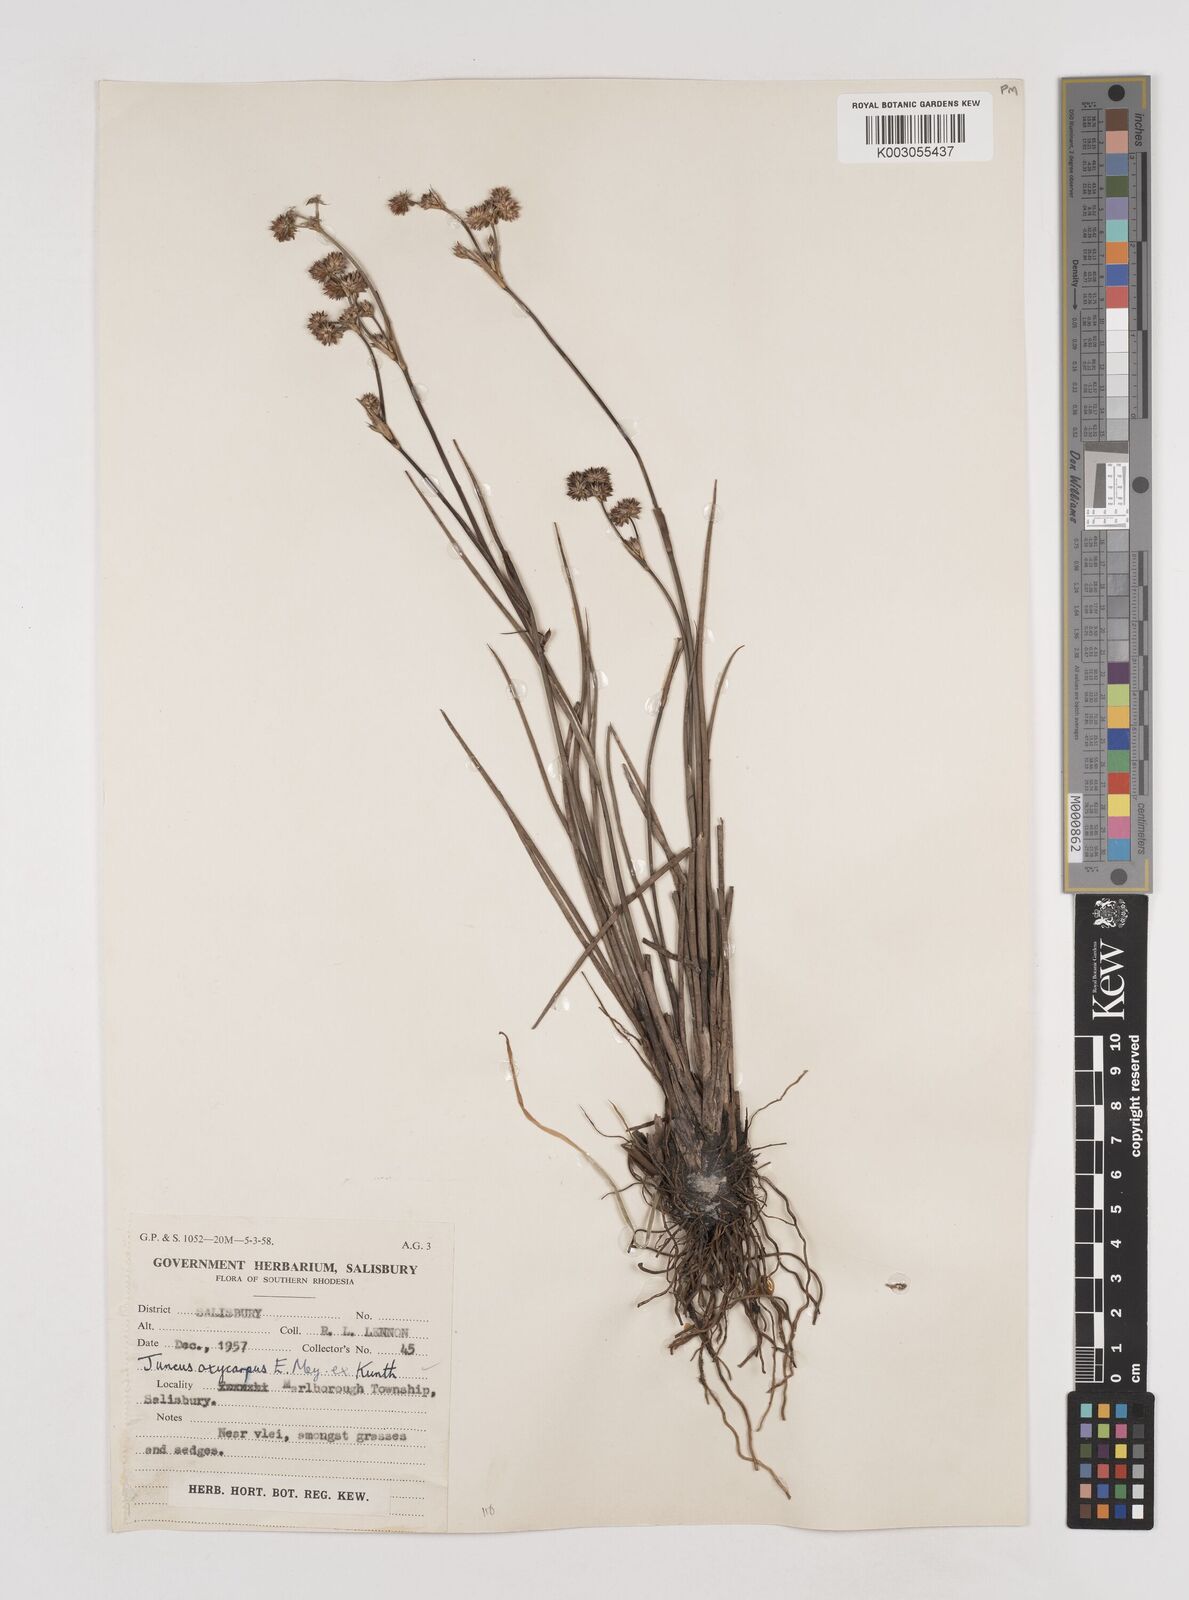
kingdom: Plantae
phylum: Tracheophyta
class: Liliopsida
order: Poales
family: Juncaceae
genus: Juncus
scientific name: Juncus oxycarpus
